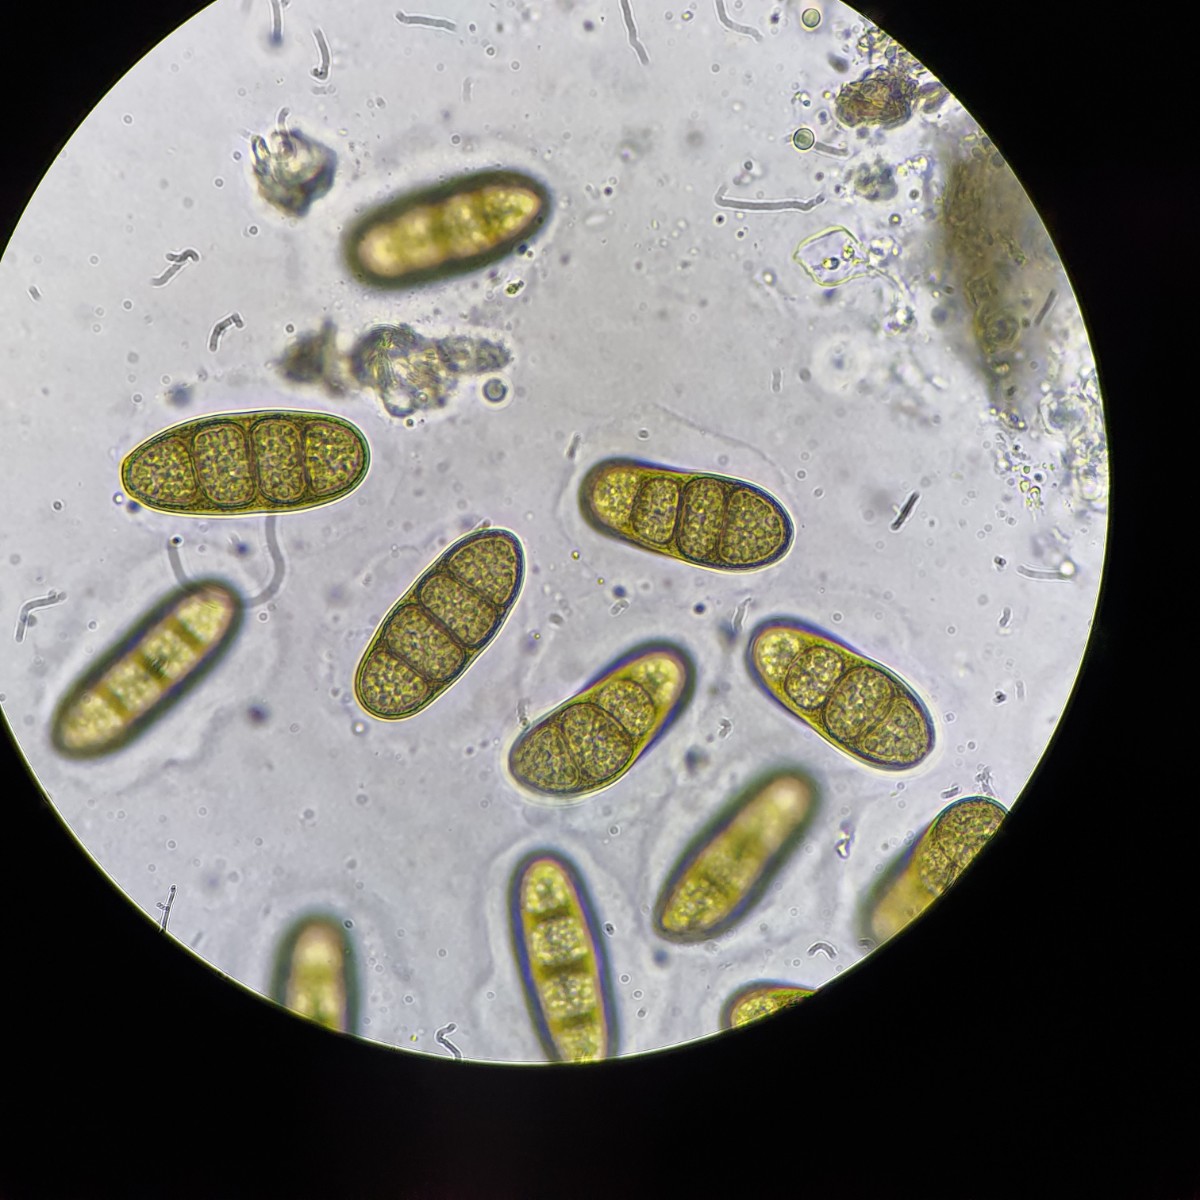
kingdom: Fungi
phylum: Ascomycota
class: Dothideomycetes
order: Pleosporales
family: Macrodiplodiopsidaceae
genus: Macrodiplodiopsis
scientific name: Macrodiplodiopsis desmazieri
